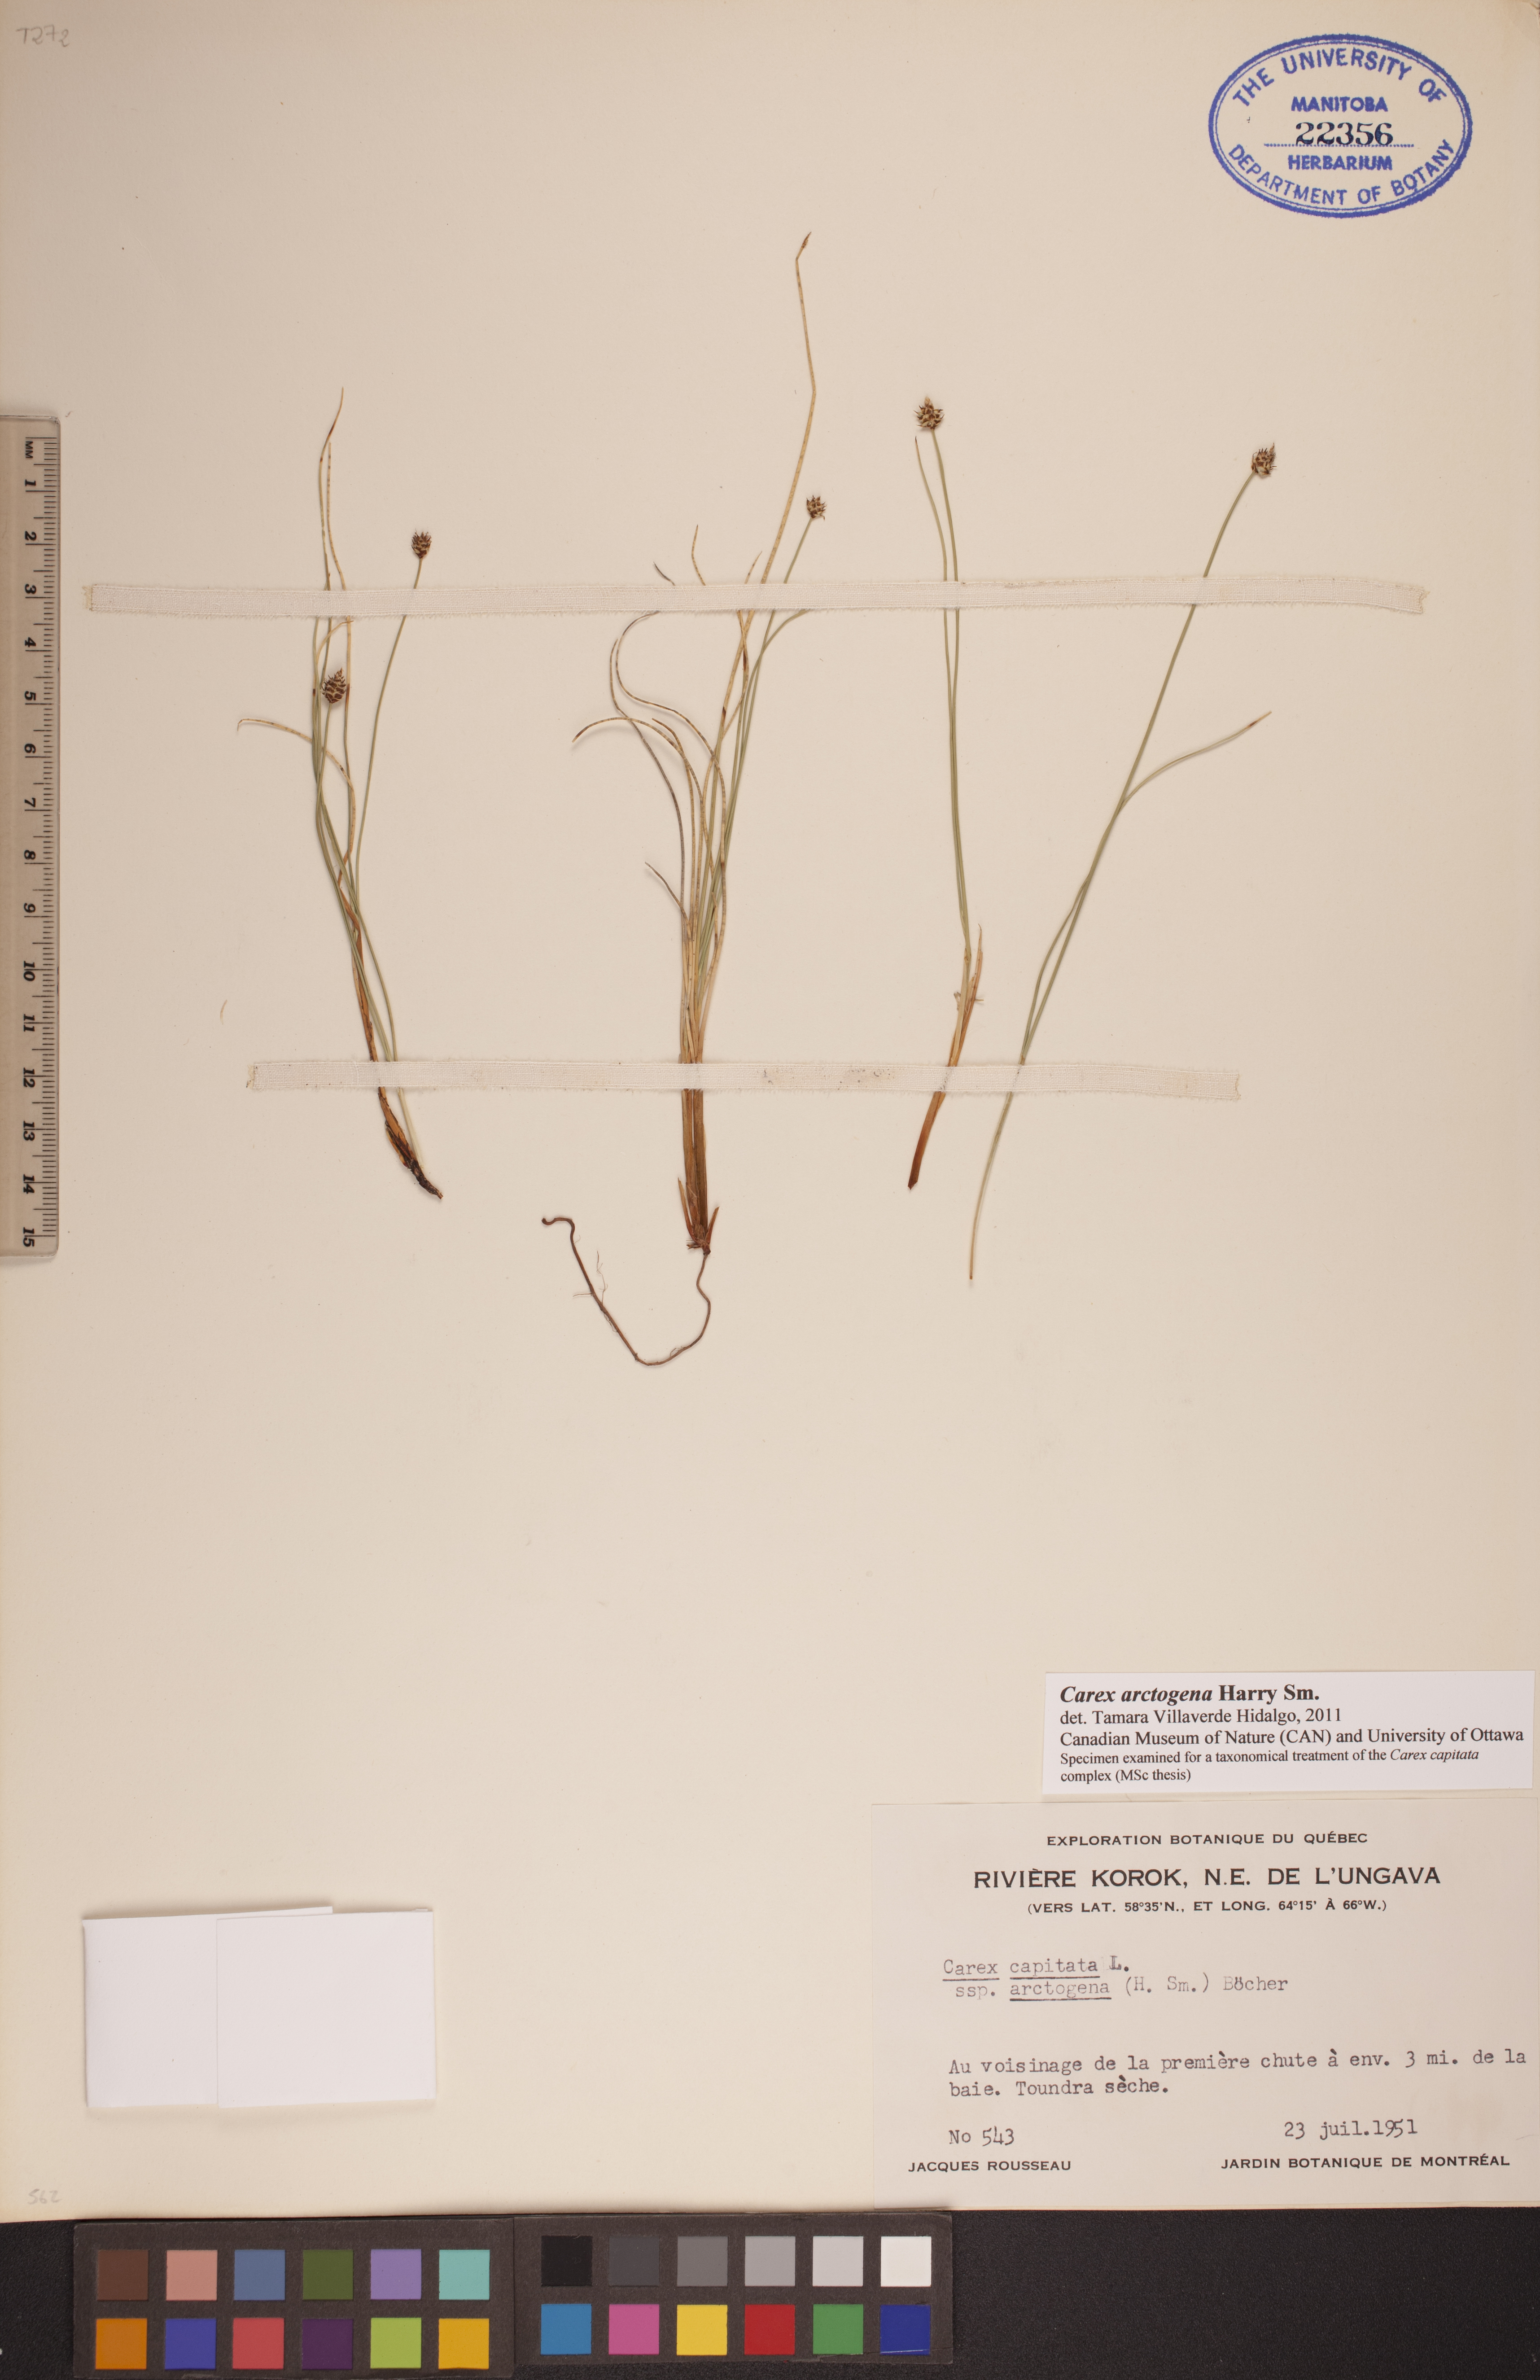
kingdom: Plantae
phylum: Tracheophyta
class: Liliopsida
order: Poales
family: Cyperaceae
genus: Carex
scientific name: Carex arctogena
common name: Black sedge
